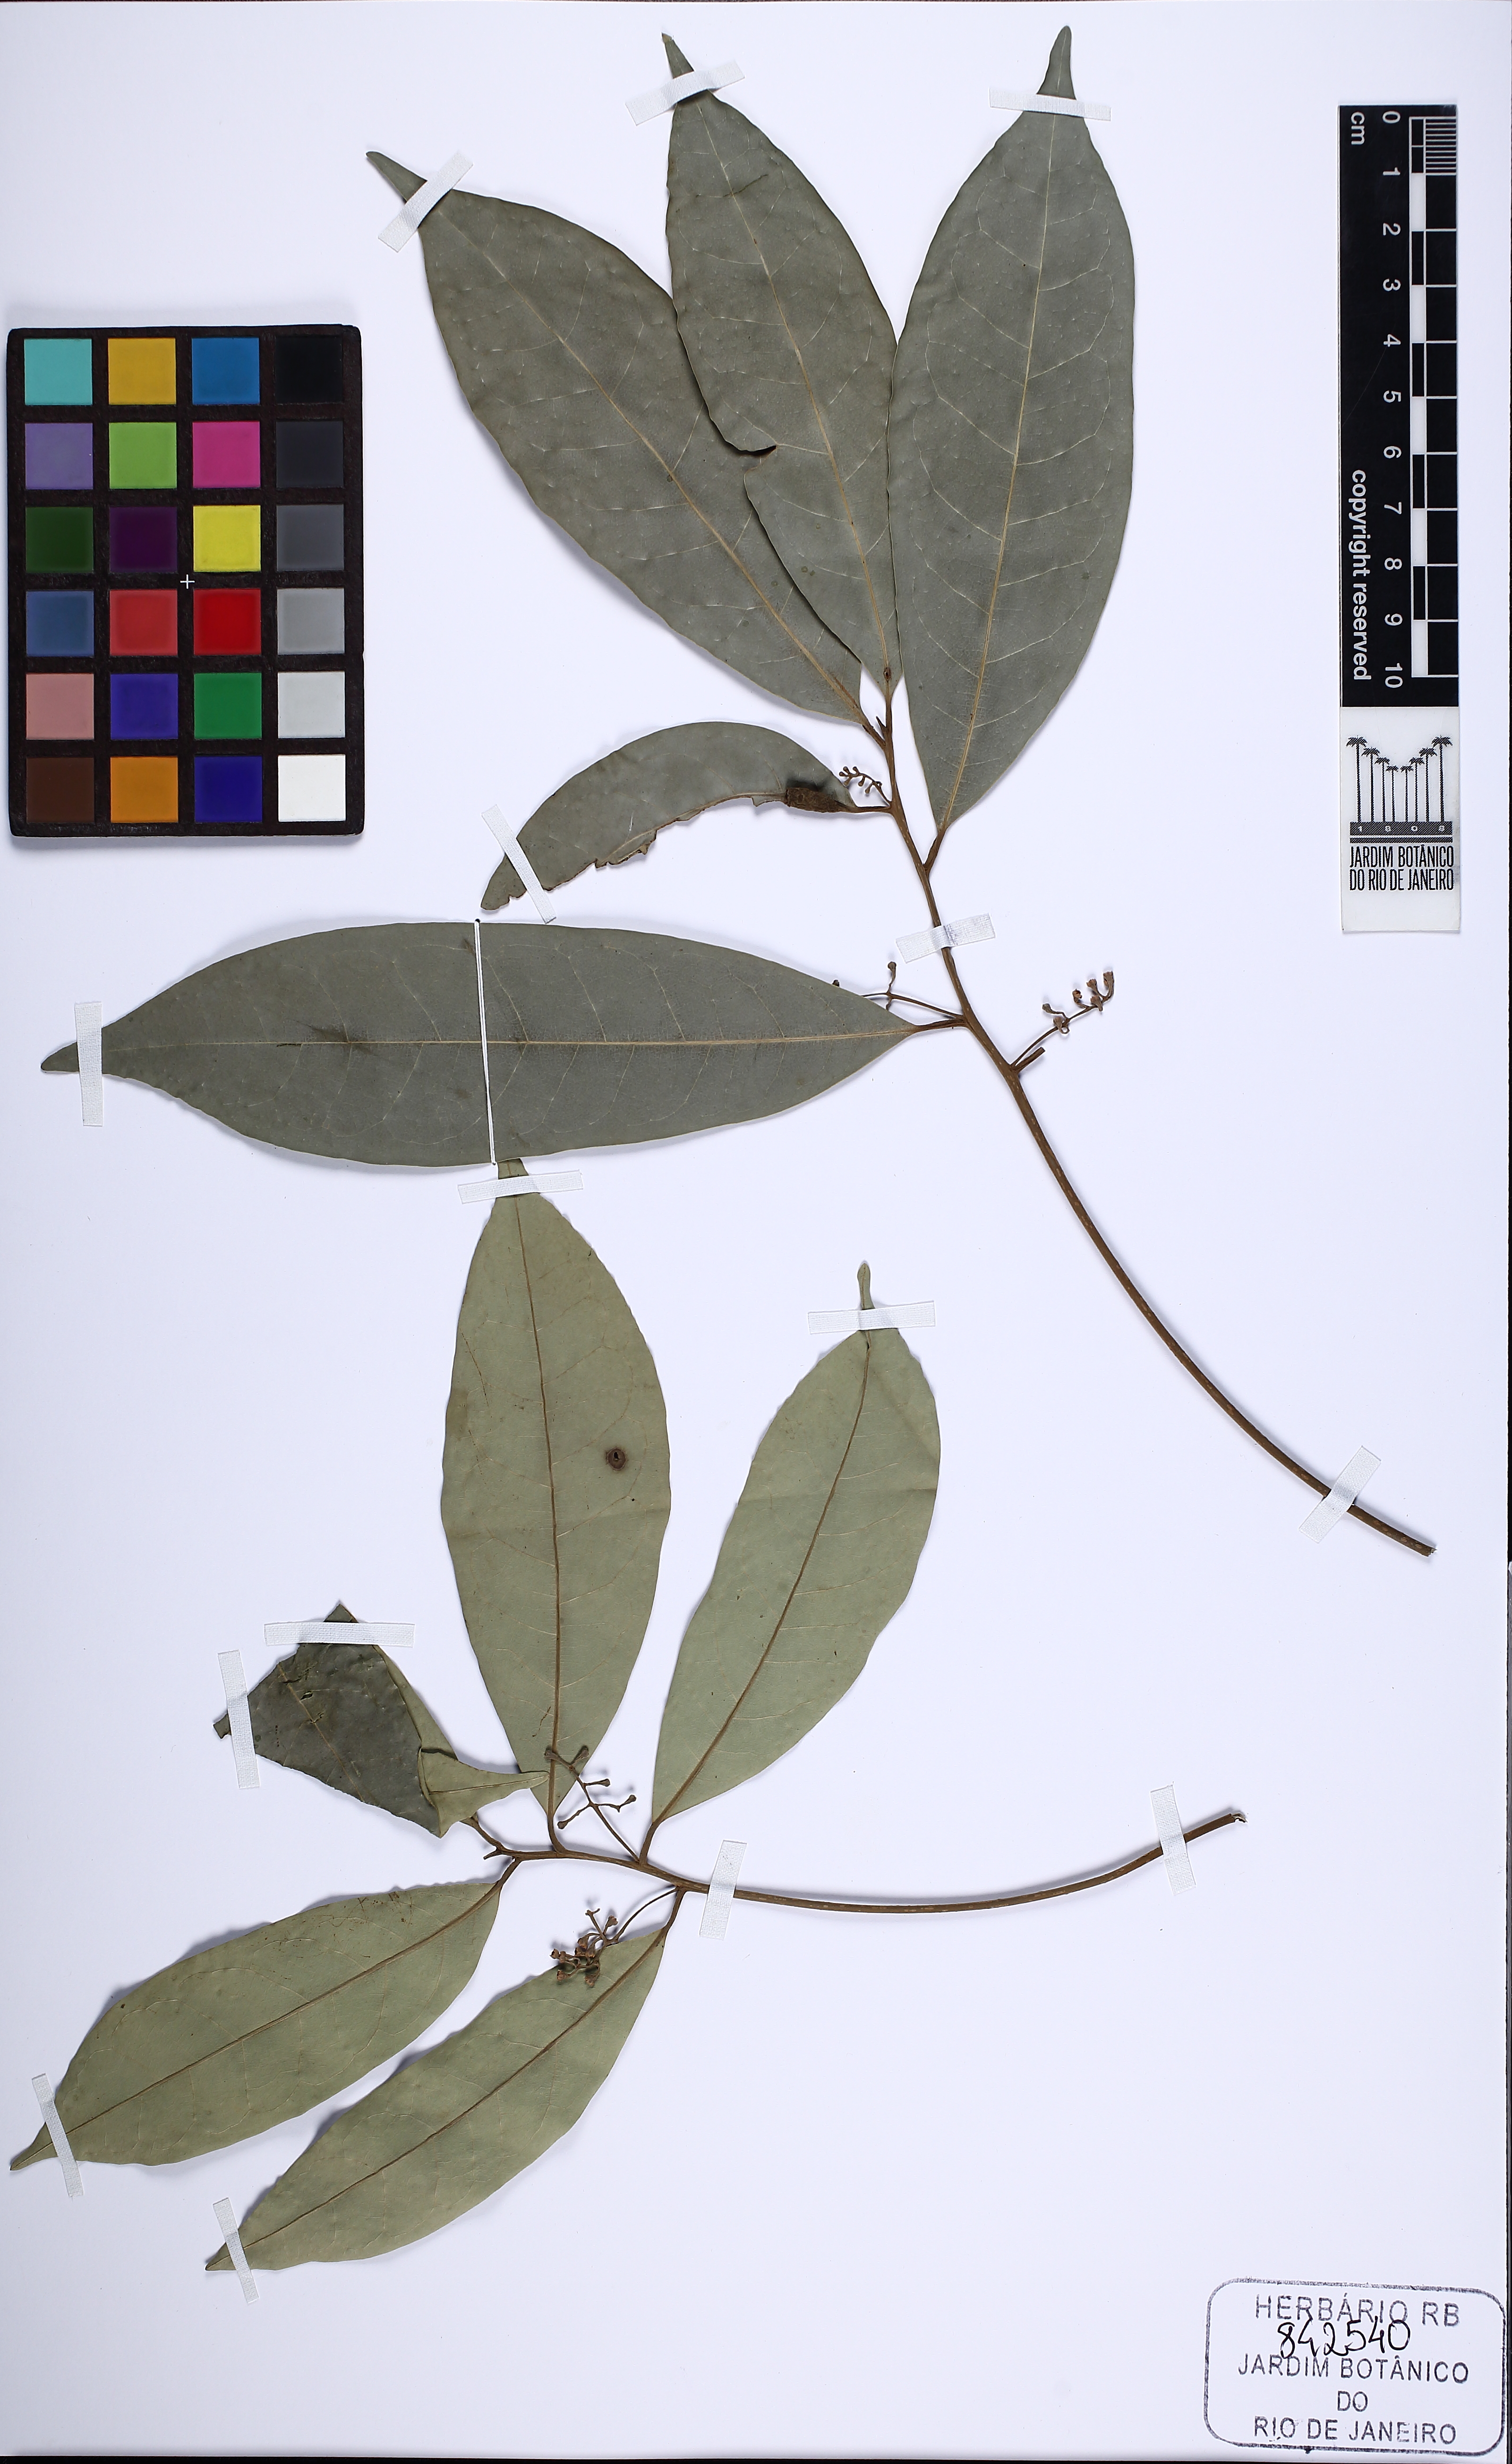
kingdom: Plantae
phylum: Tracheophyta
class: Magnoliopsida
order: Laurales
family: Lauraceae
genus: Aniba
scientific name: Aniba firmula
